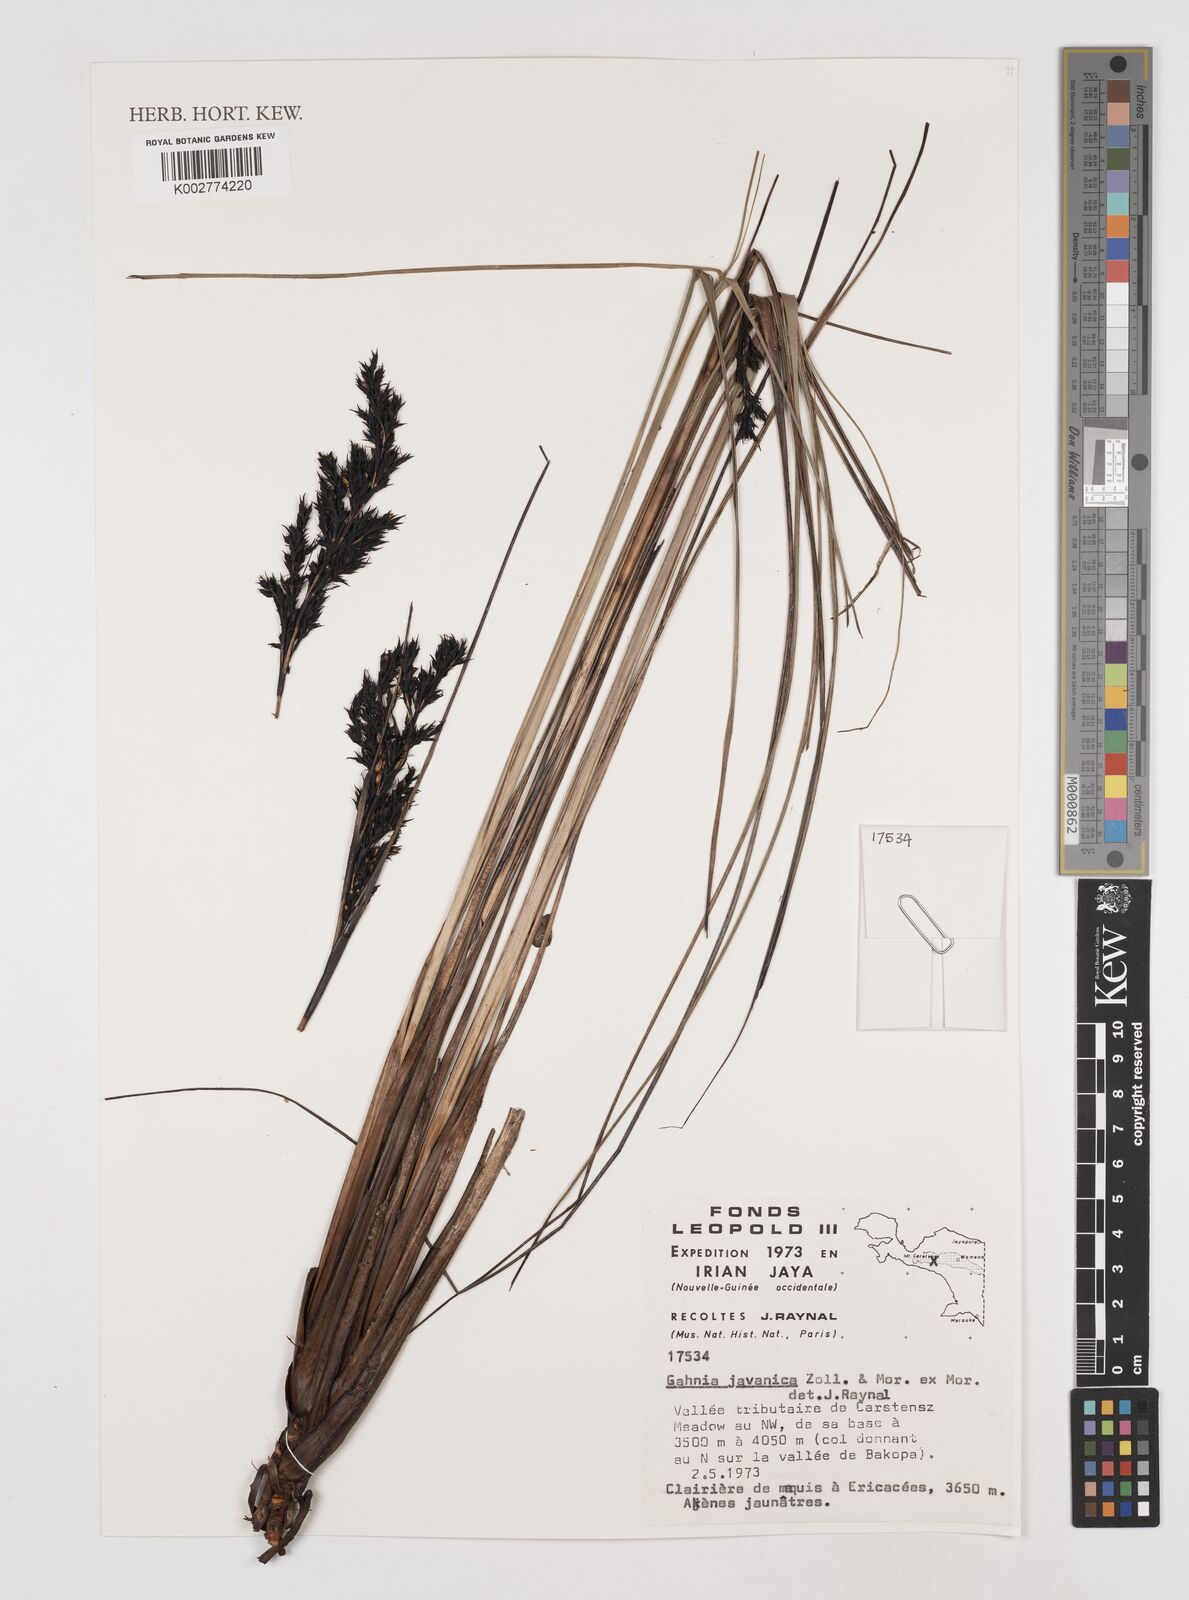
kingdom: Plantae
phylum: Tracheophyta
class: Liliopsida
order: Poales
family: Cyperaceae
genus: Gahnia
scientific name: Gahnia javanica
